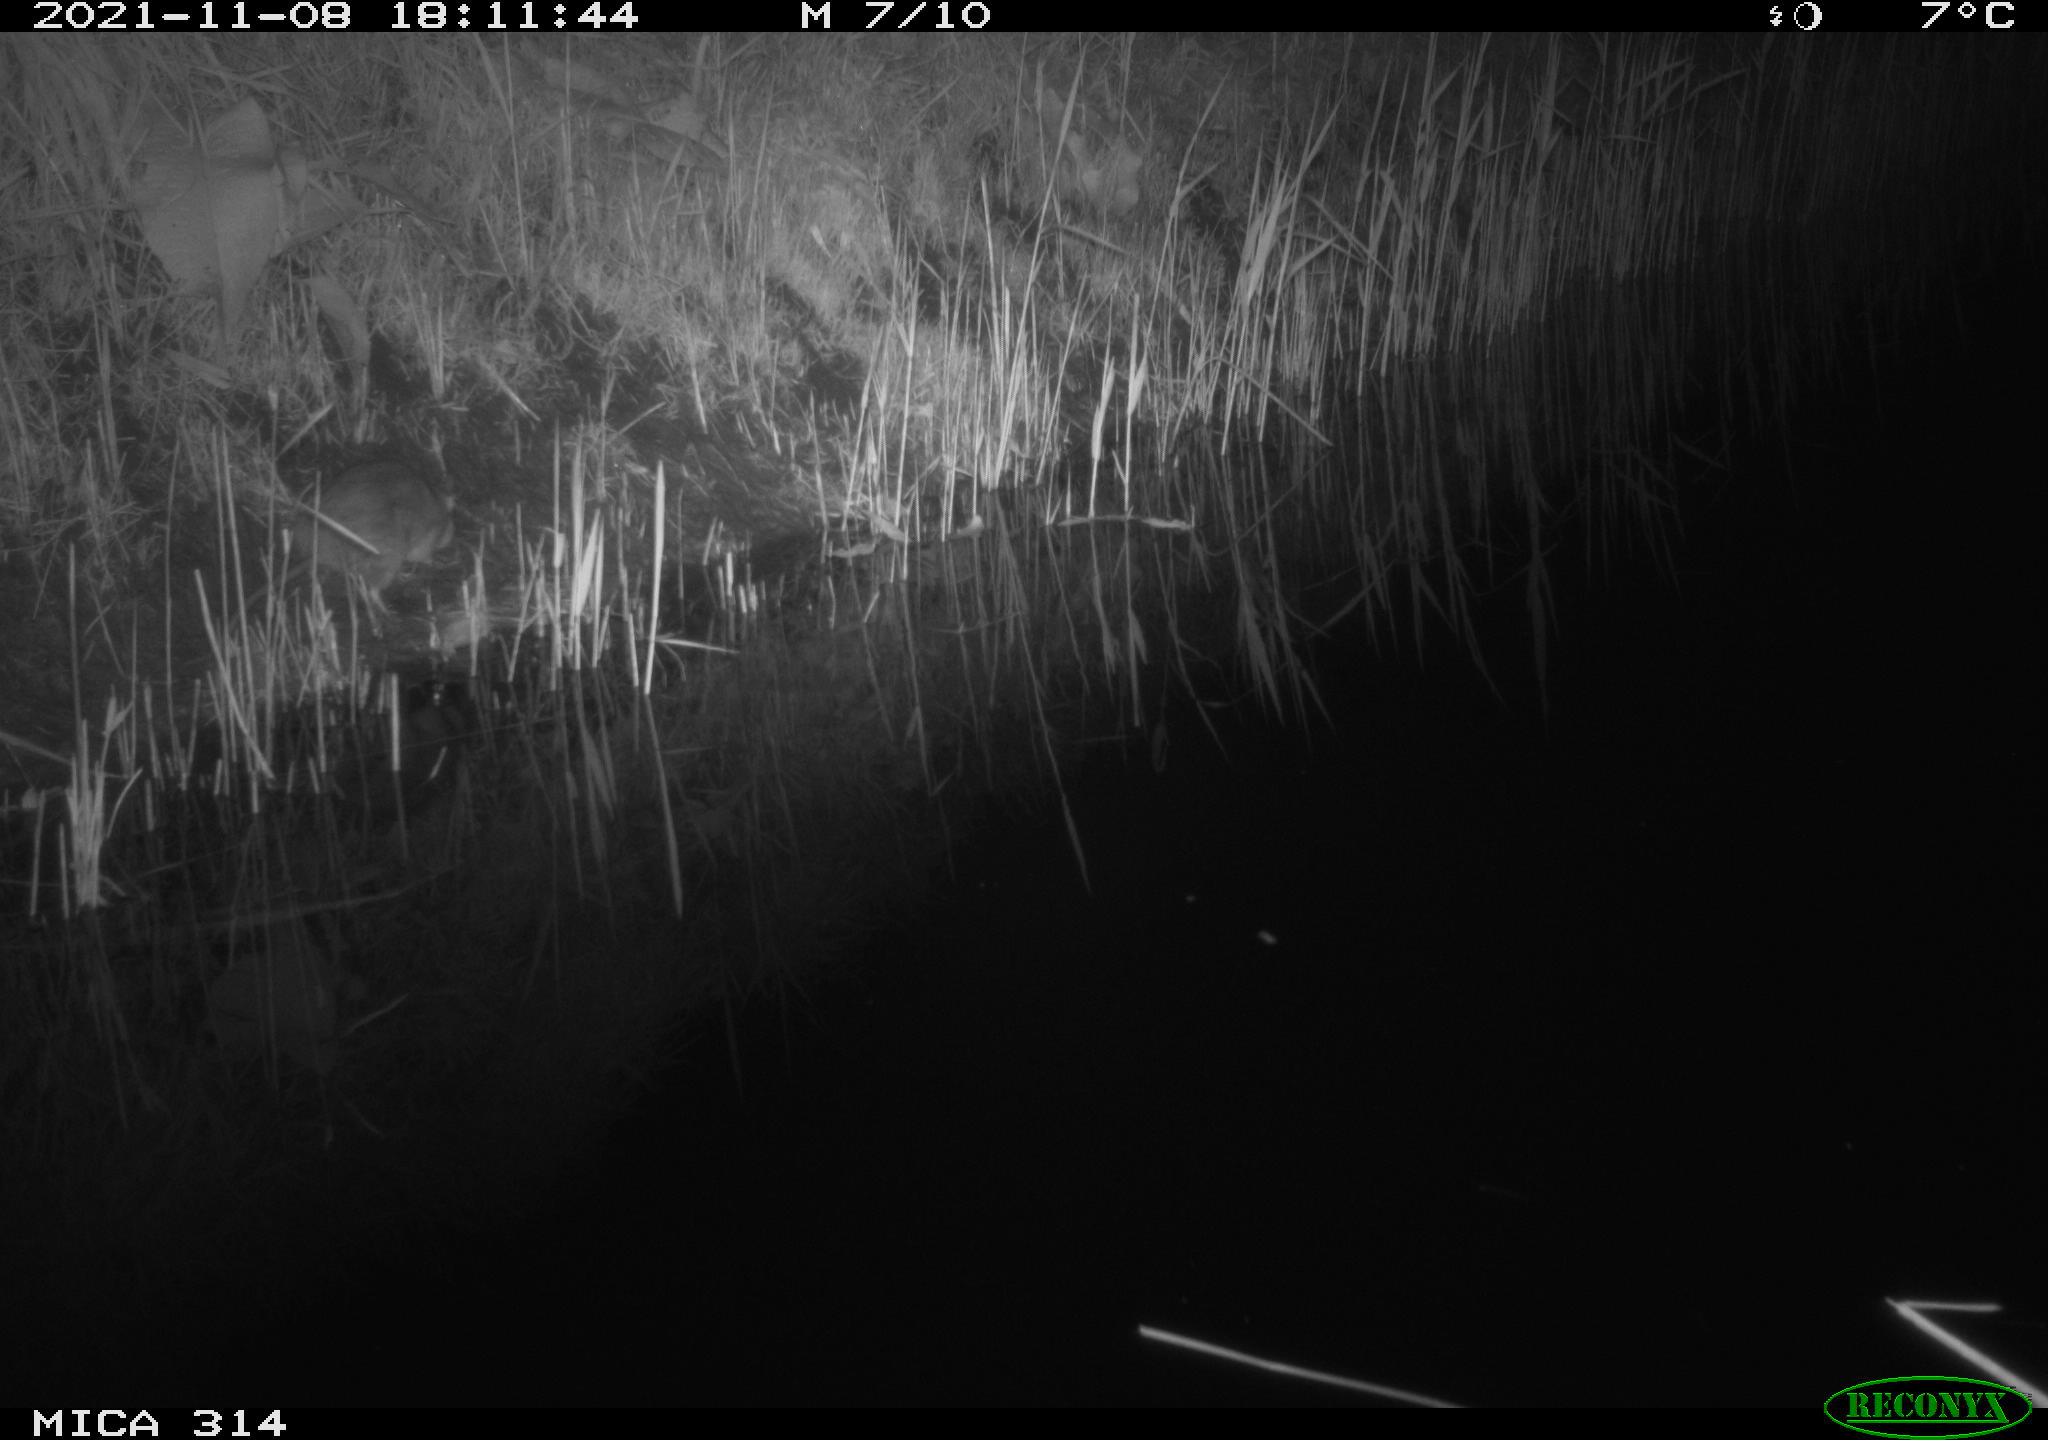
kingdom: Animalia
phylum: Chordata
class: Mammalia
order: Rodentia
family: Muridae
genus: Rattus
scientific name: Rattus norvegicus
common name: Brown rat
